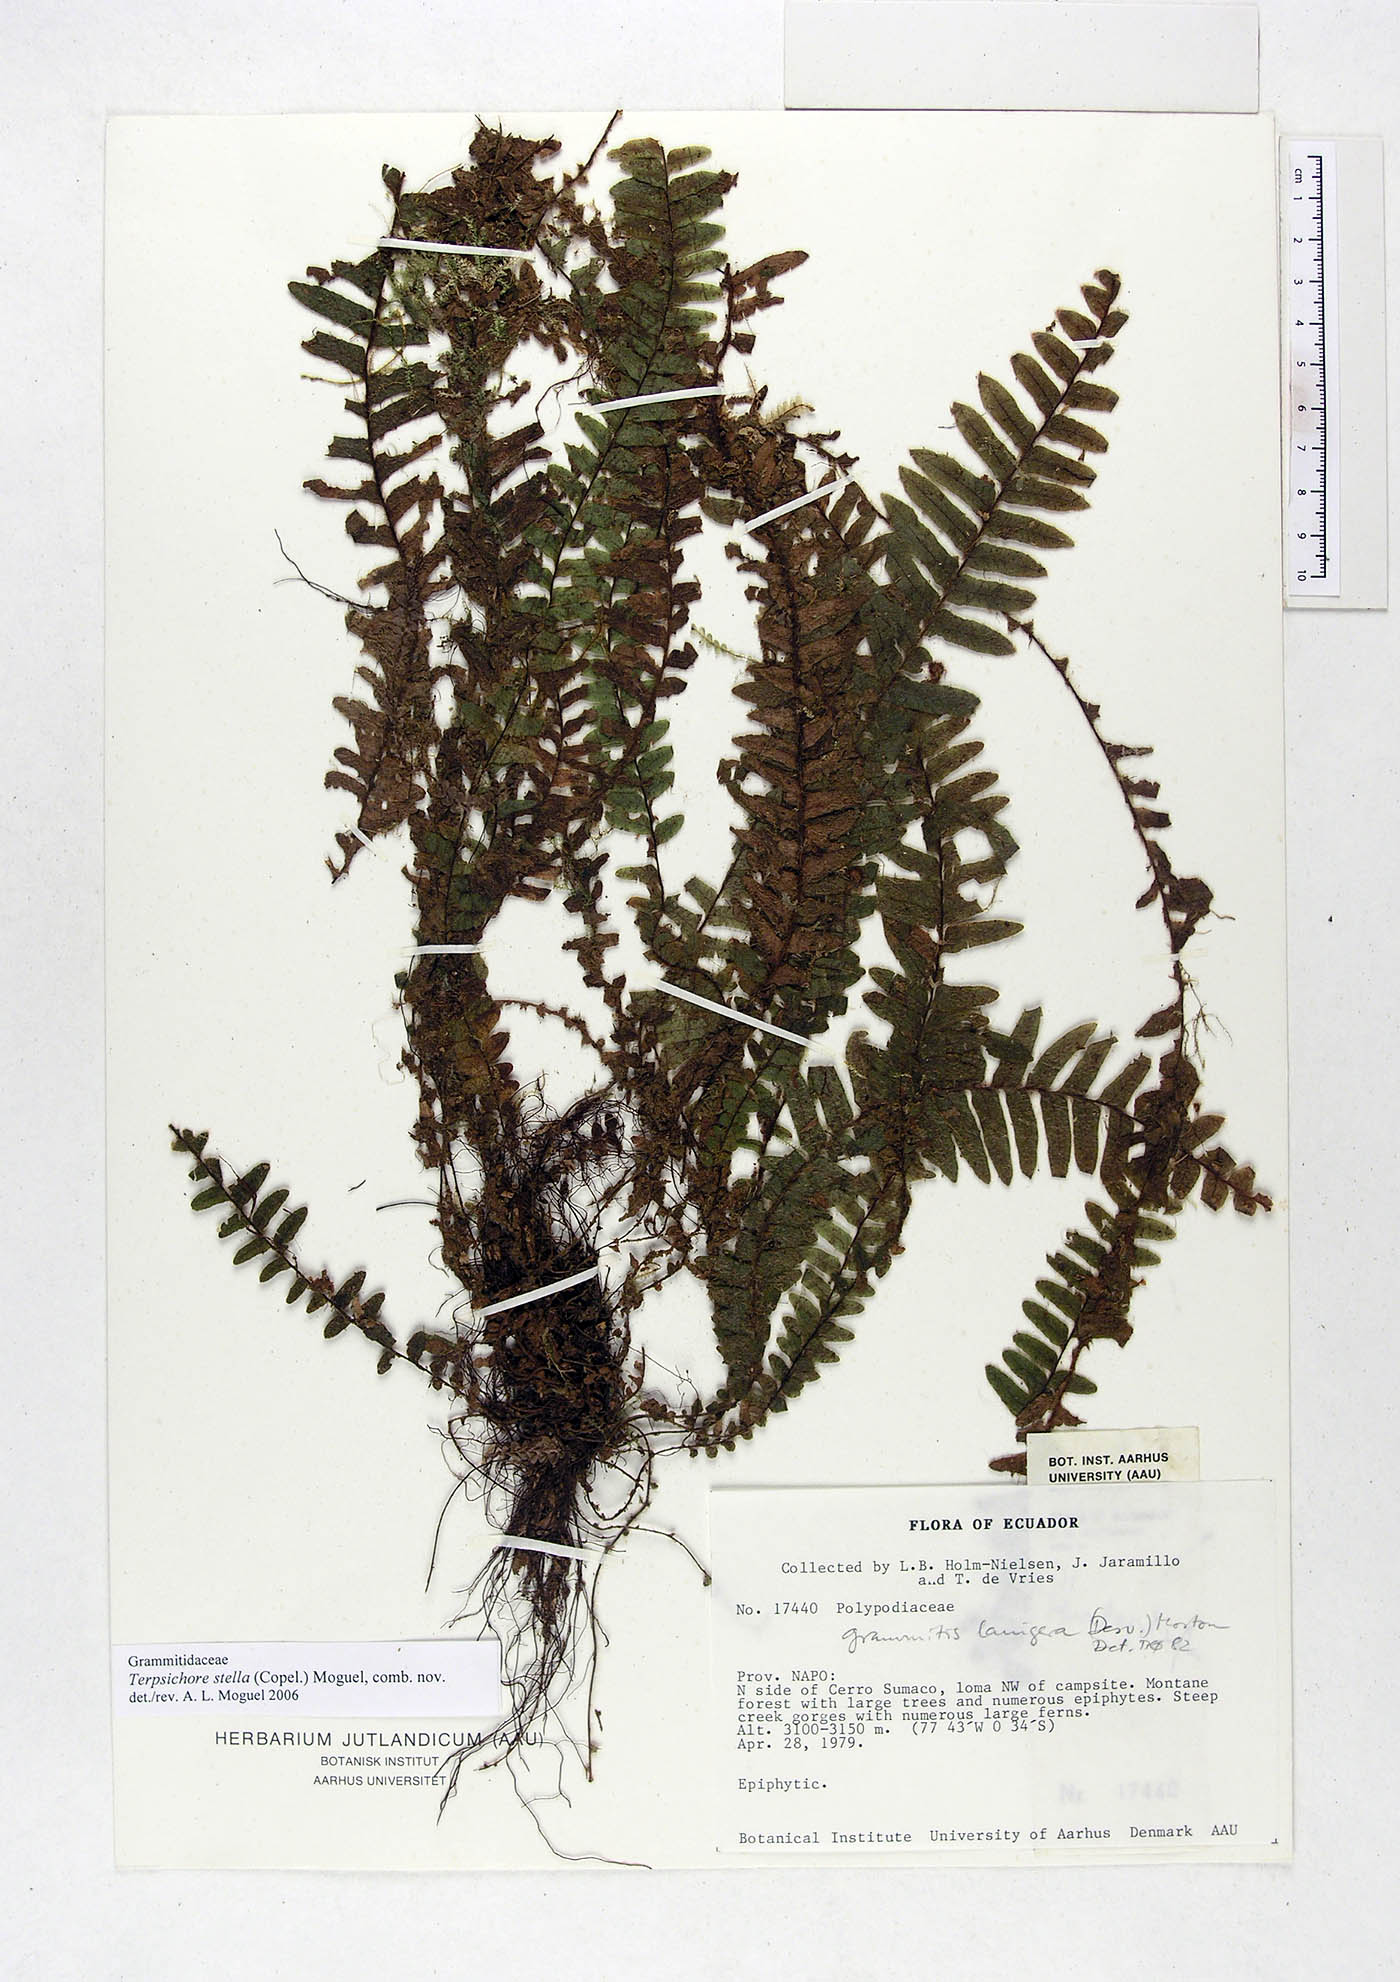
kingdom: Plantae
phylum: Tracheophyta
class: Polypodiopsida
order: Polypodiales
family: Polypodiaceae
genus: Alansmia
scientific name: Alansmia stella
